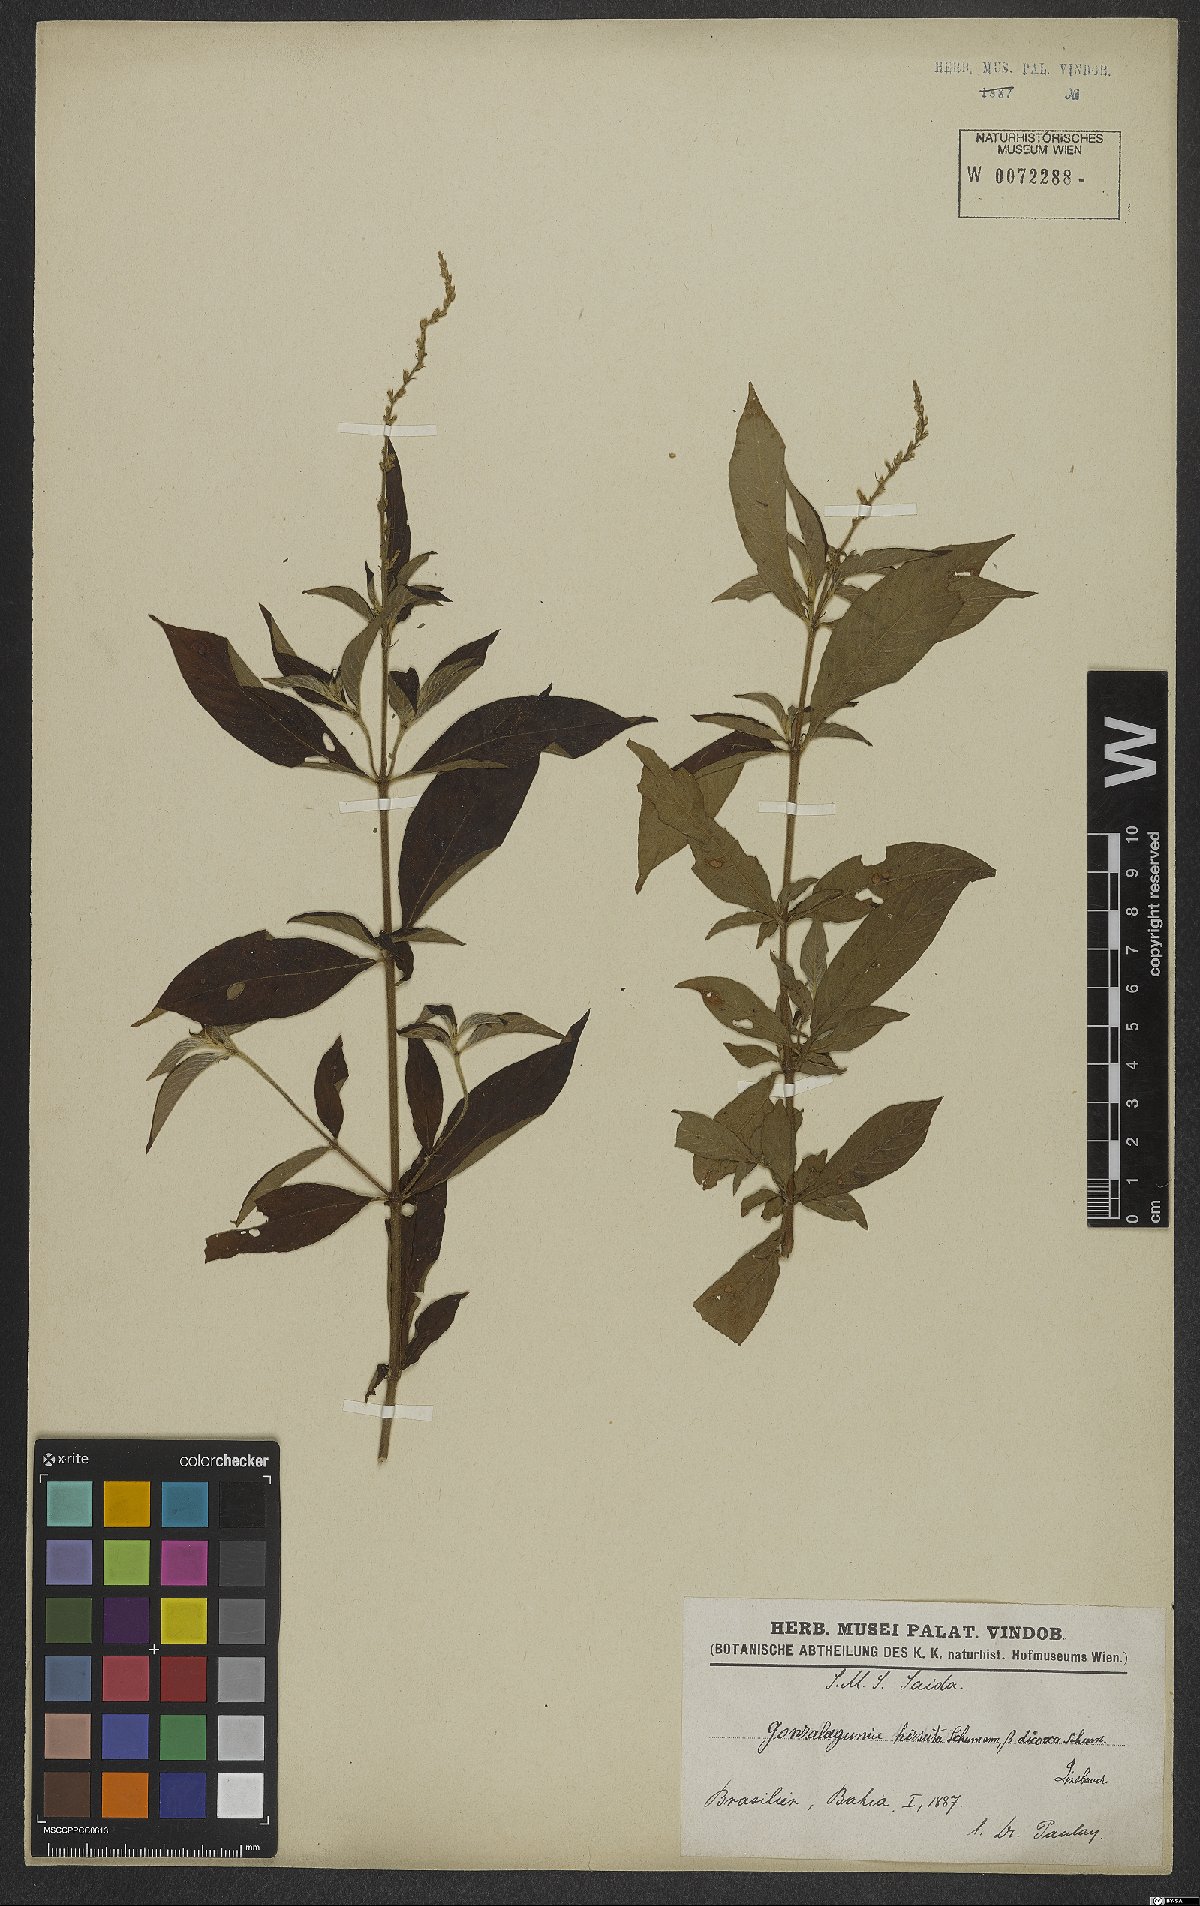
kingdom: Plantae
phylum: Tracheophyta
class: Magnoliopsida
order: Gentianales
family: Rubiaceae
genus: Gonzalagunia
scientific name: Gonzalagunia hirsuta
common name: Mata de mariposa
